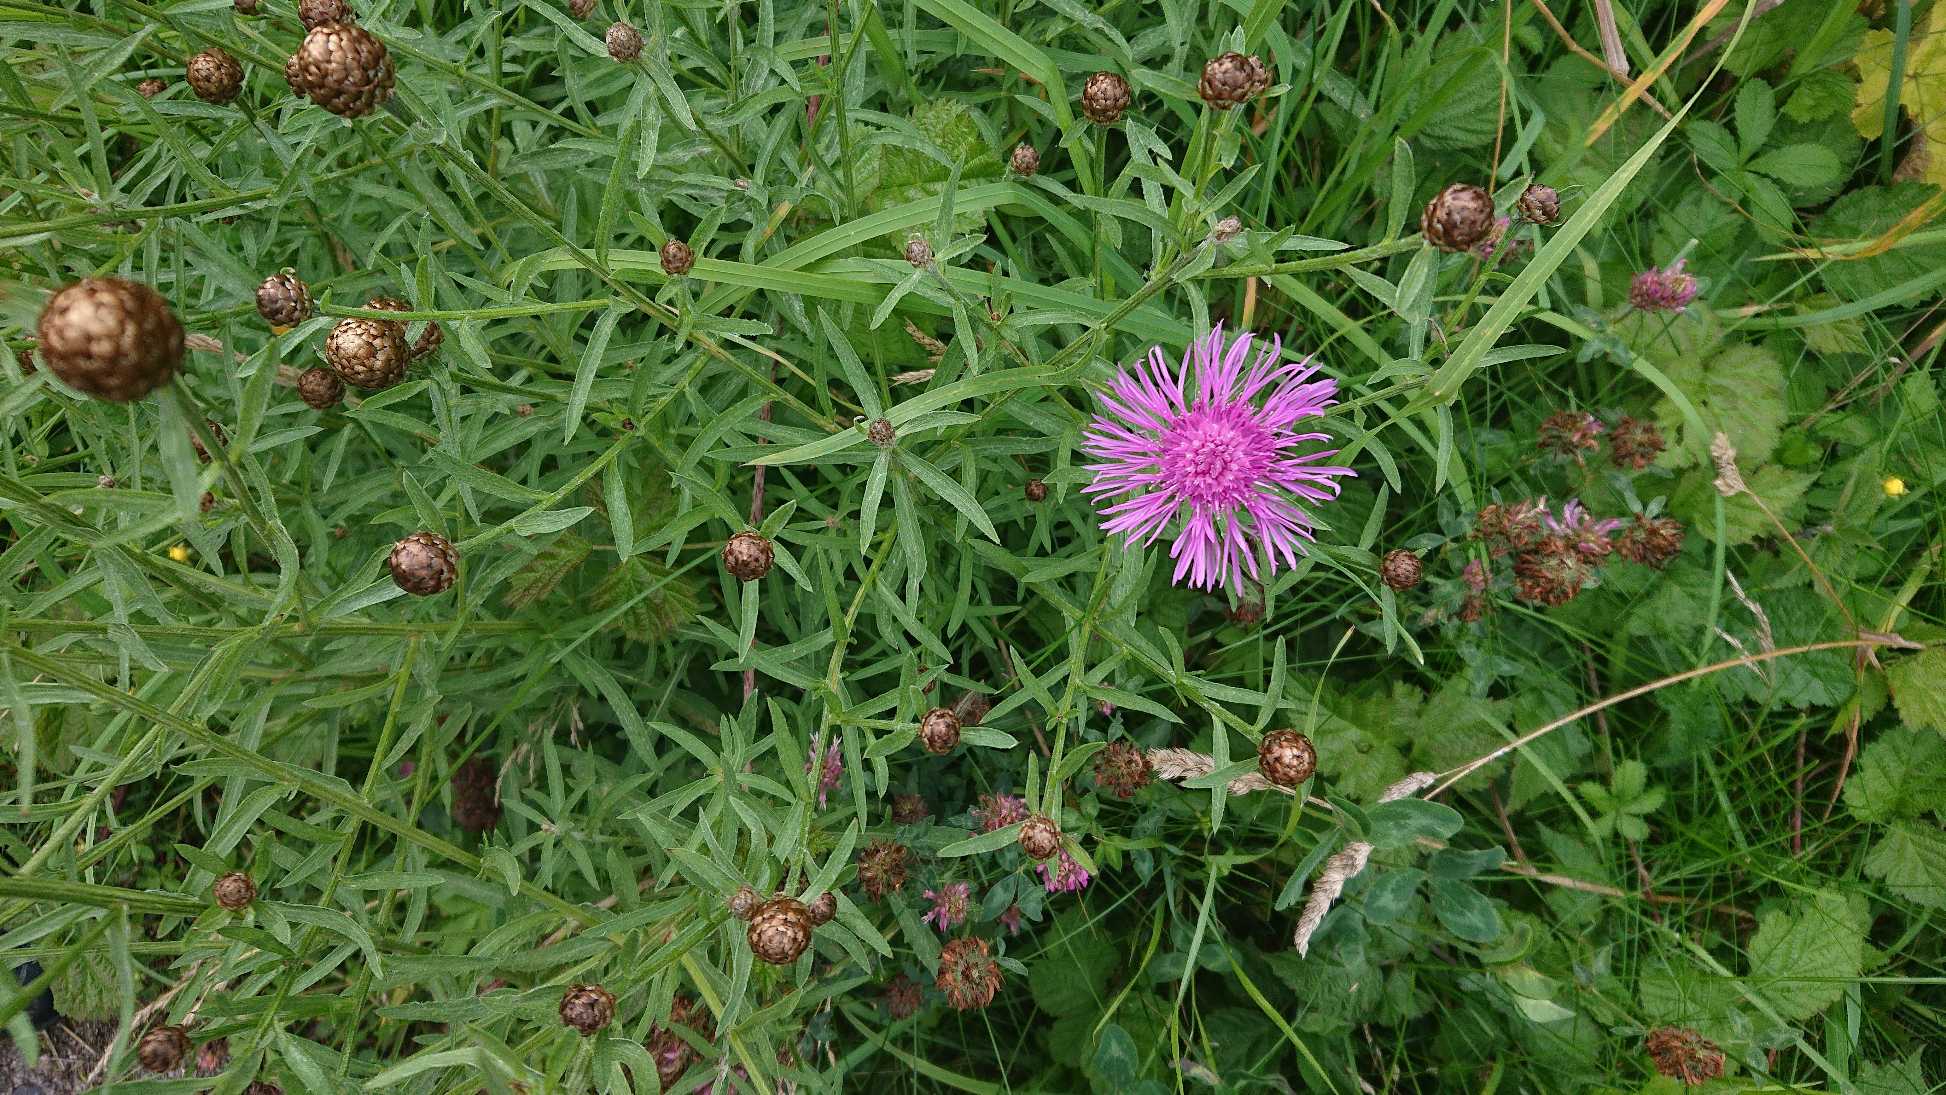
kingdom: Plantae
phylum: Tracheophyta
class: Magnoliopsida
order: Asterales
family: Asteraceae
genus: Centaurea
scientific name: Centaurea jacea
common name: Almindelig knopurt
